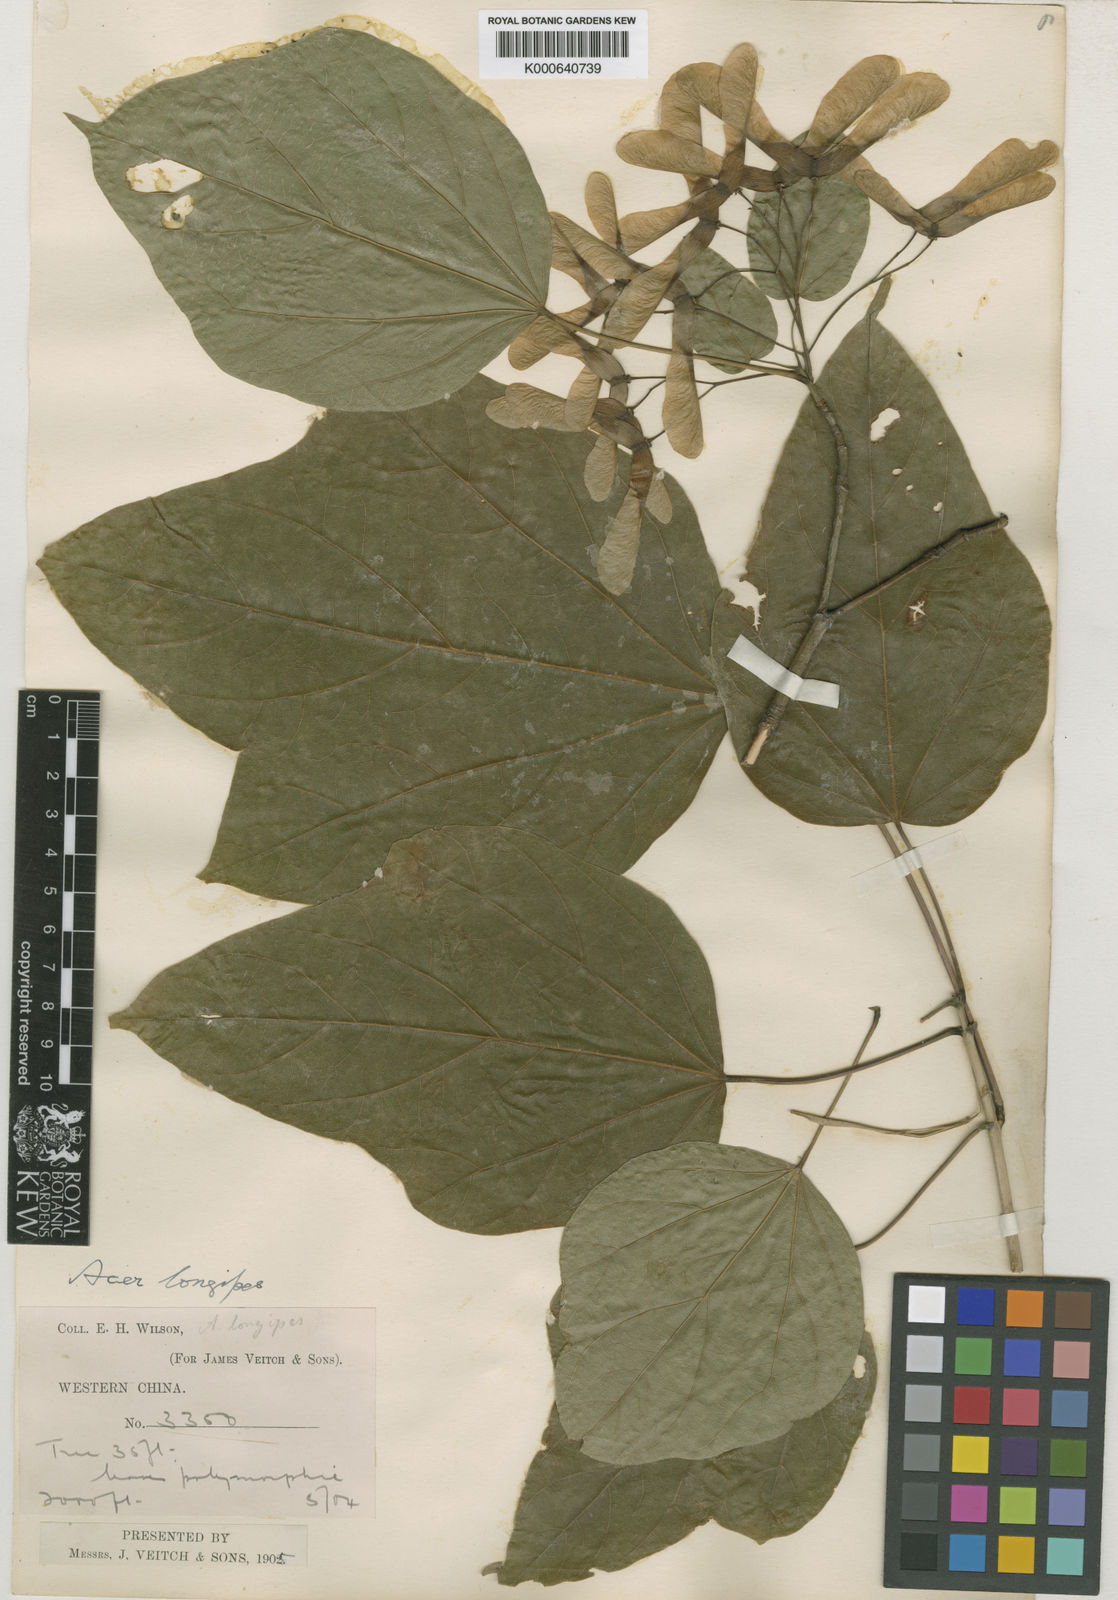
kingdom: Plantae
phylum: Tracheophyta
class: Magnoliopsida
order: Sapindales
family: Sapindaceae
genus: Acer
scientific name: Acer amplum
